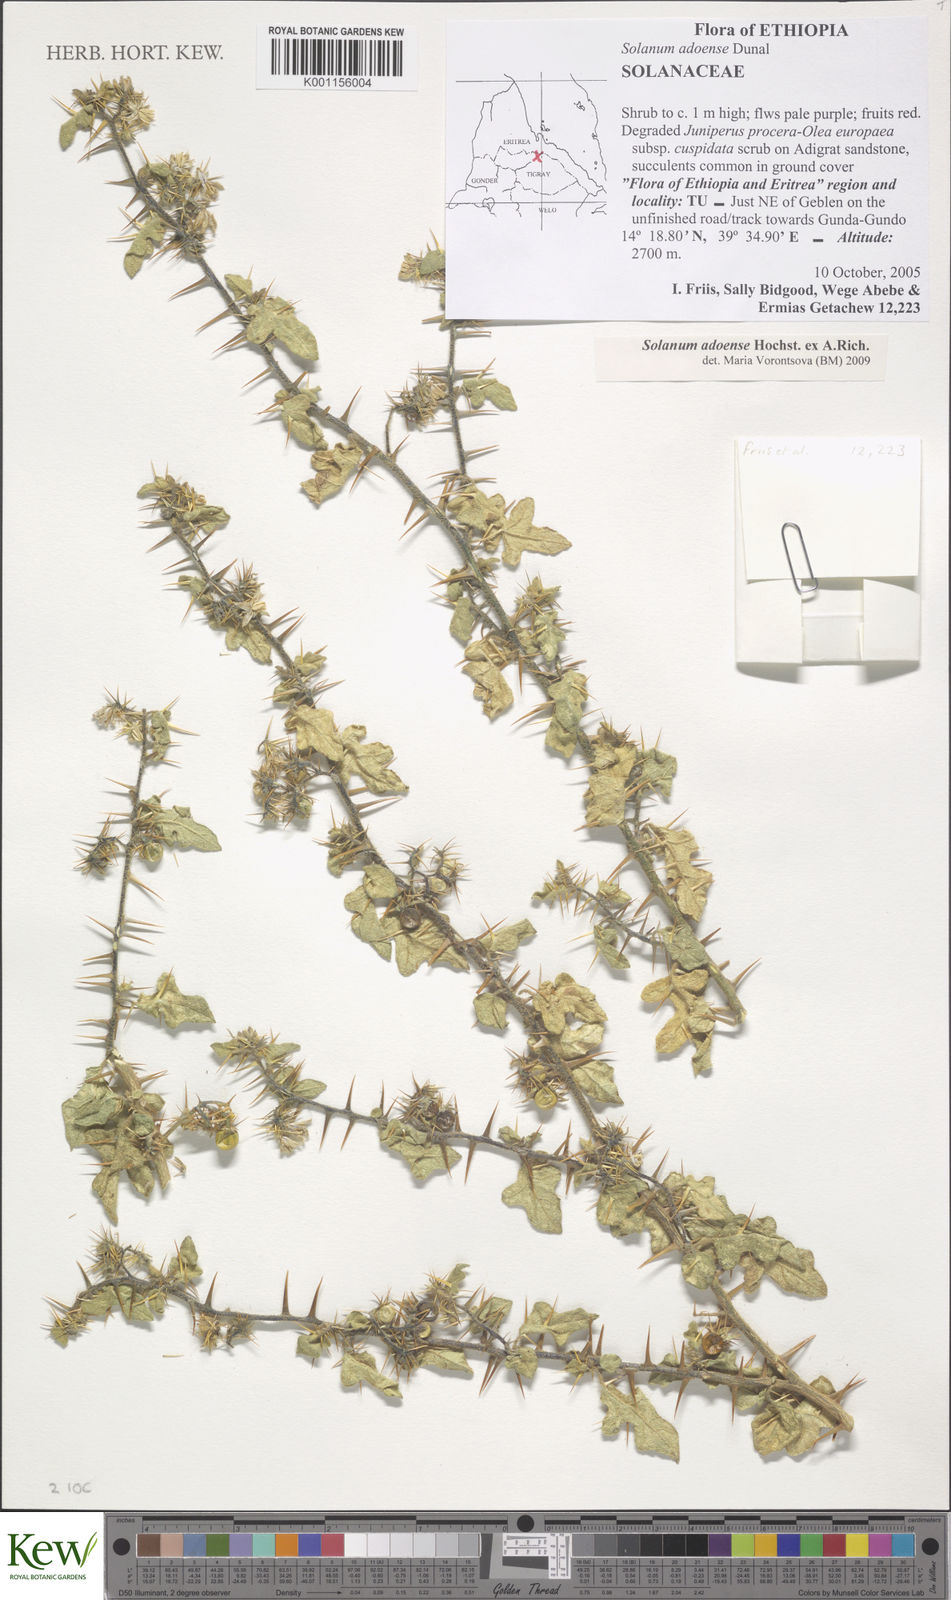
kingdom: Plantae
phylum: Tracheophyta
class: Magnoliopsida
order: Solanales
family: Solanaceae
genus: Solanum
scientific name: Solanum adoense
